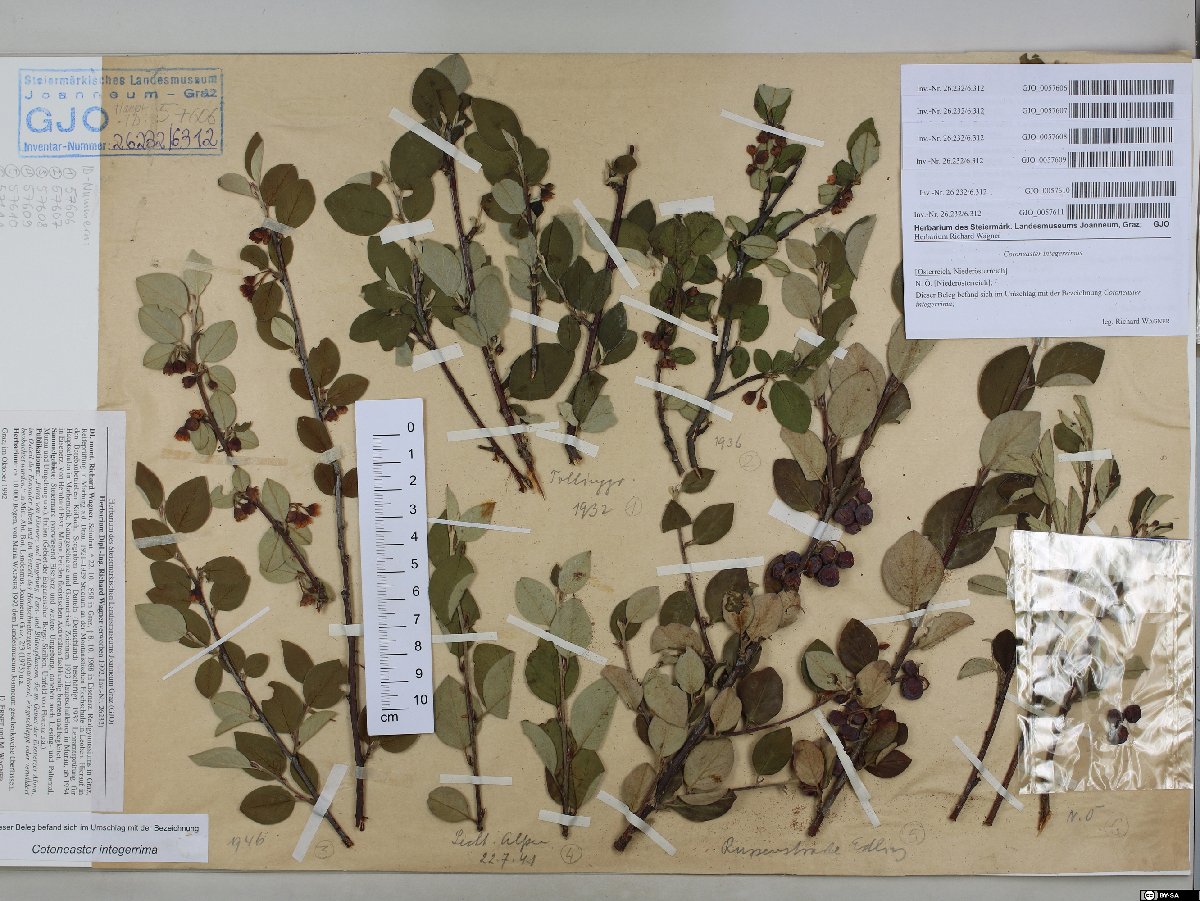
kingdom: Plantae
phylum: Tracheophyta
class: Magnoliopsida
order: Rosales
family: Rosaceae
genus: Cotoneaster
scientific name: Cotoneaster integerrimus
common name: Wild cotoneaster
